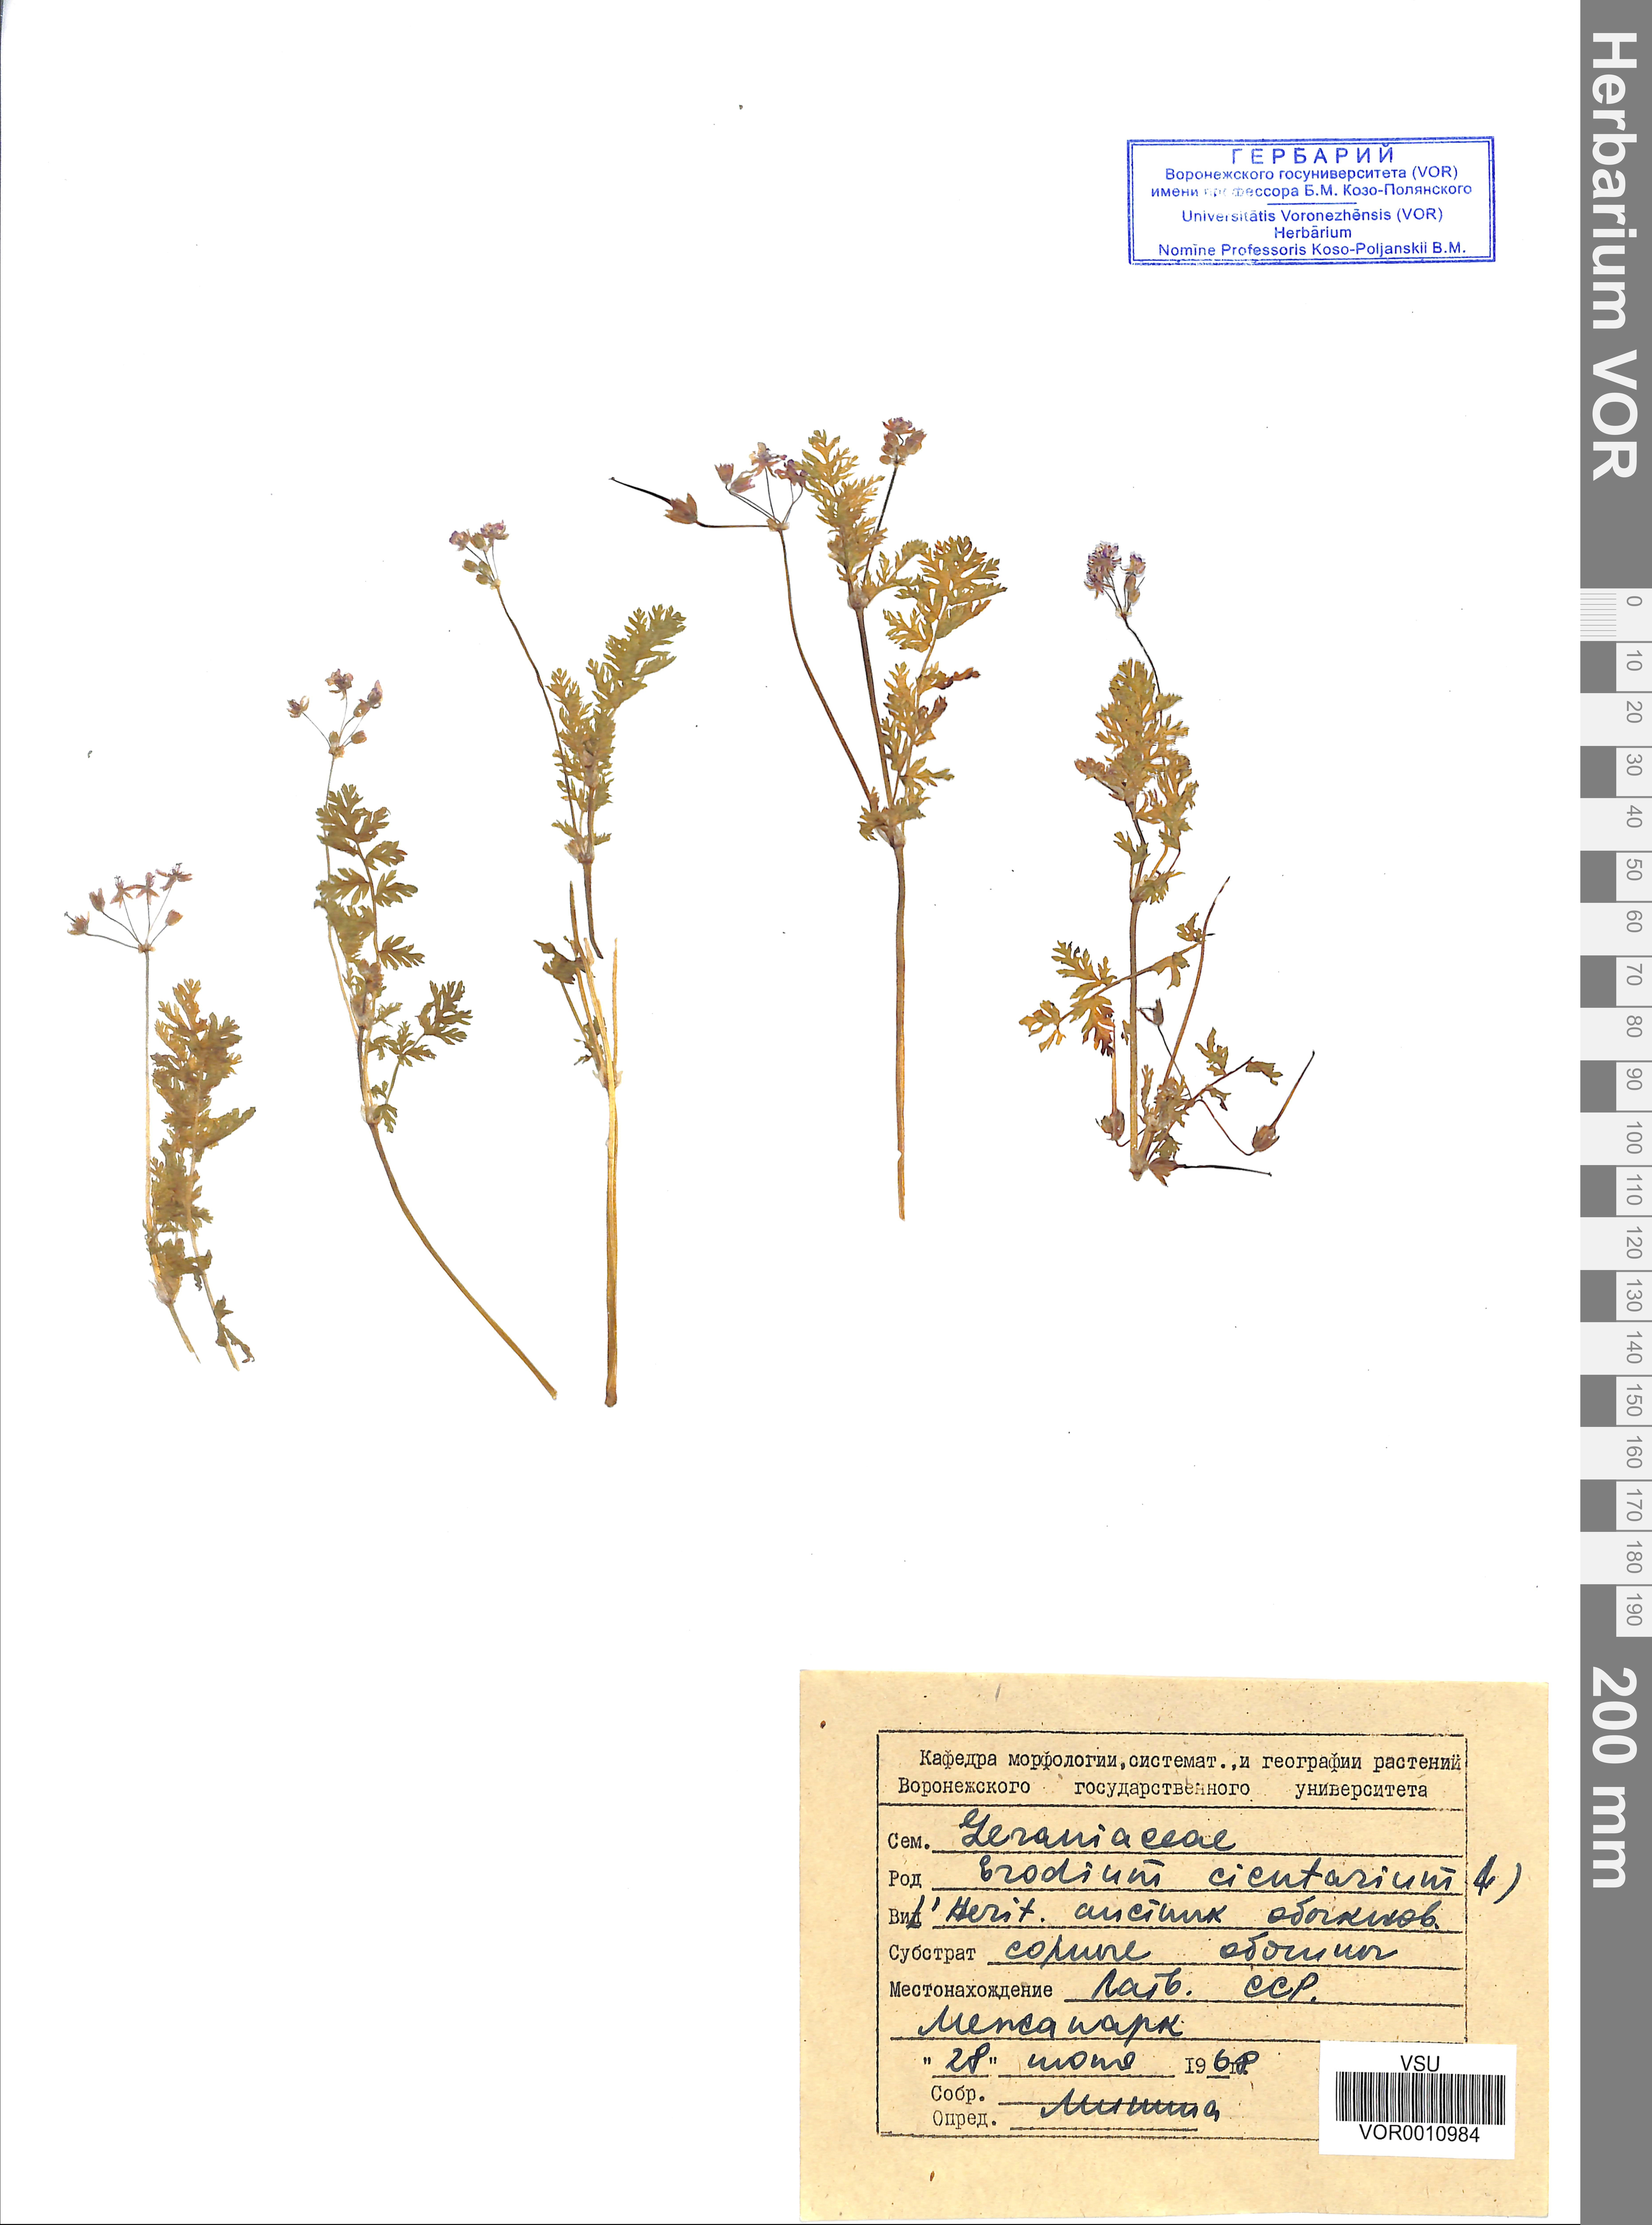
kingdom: Plantae
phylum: Tracheophyta
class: Magnoliopsida
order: Geraniales
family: Geraniaceae
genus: Erodium
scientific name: Erodium cicutarium
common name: Common stork's-bill
